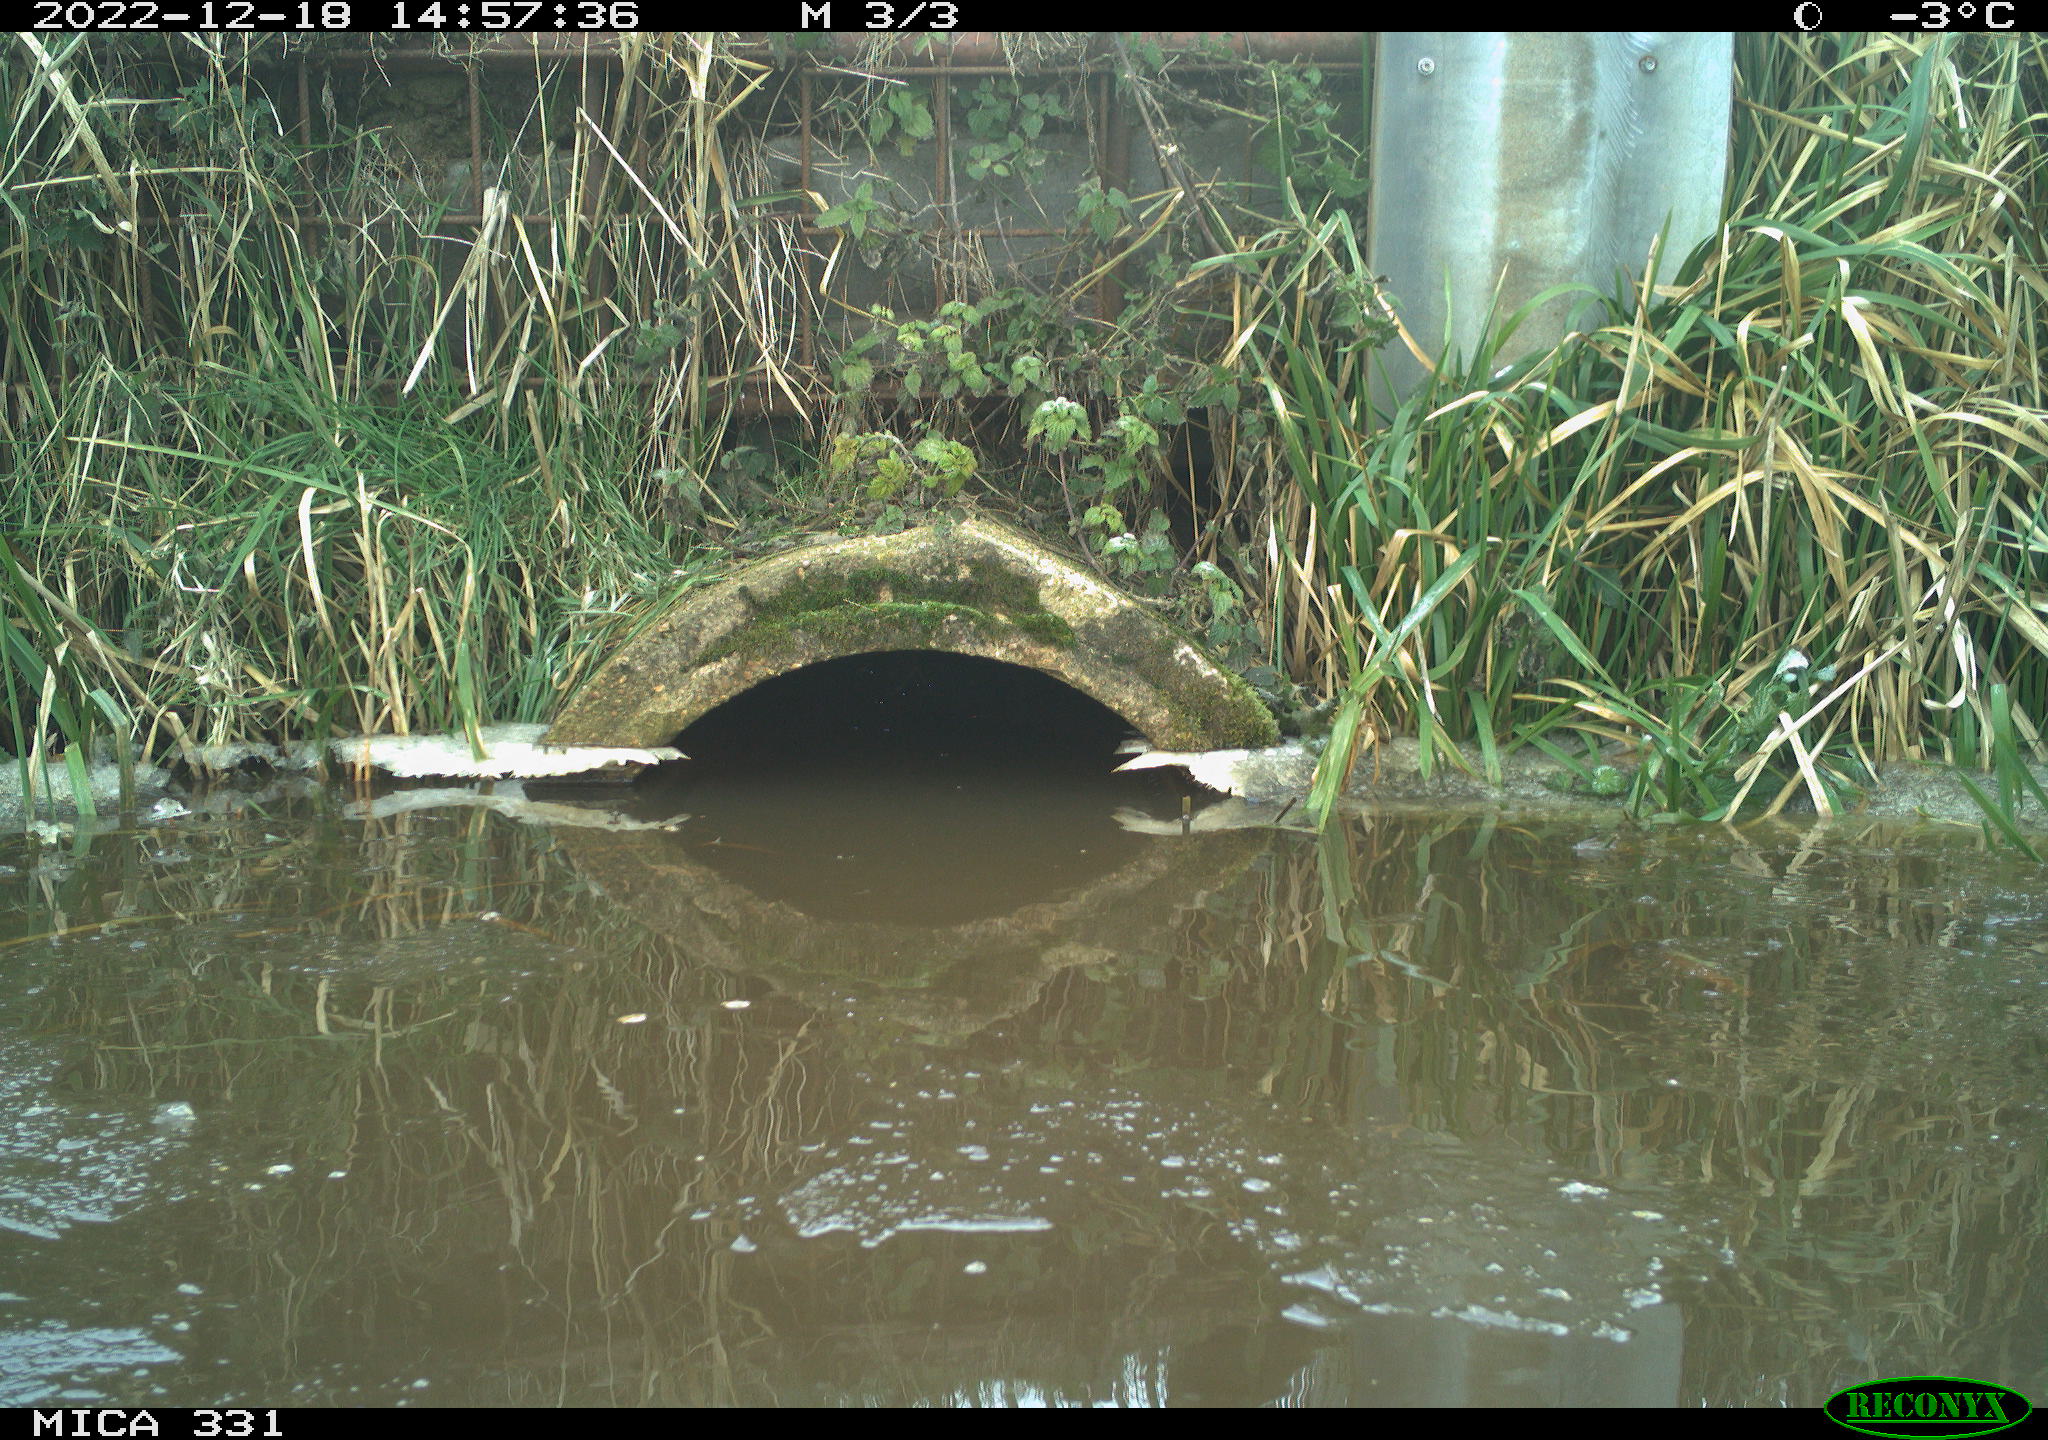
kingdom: Animalia
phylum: Chordata
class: Aves
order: Gruiformes
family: Rallidae
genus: Gallinula
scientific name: Gallinula chloropus
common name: Common moorhen
